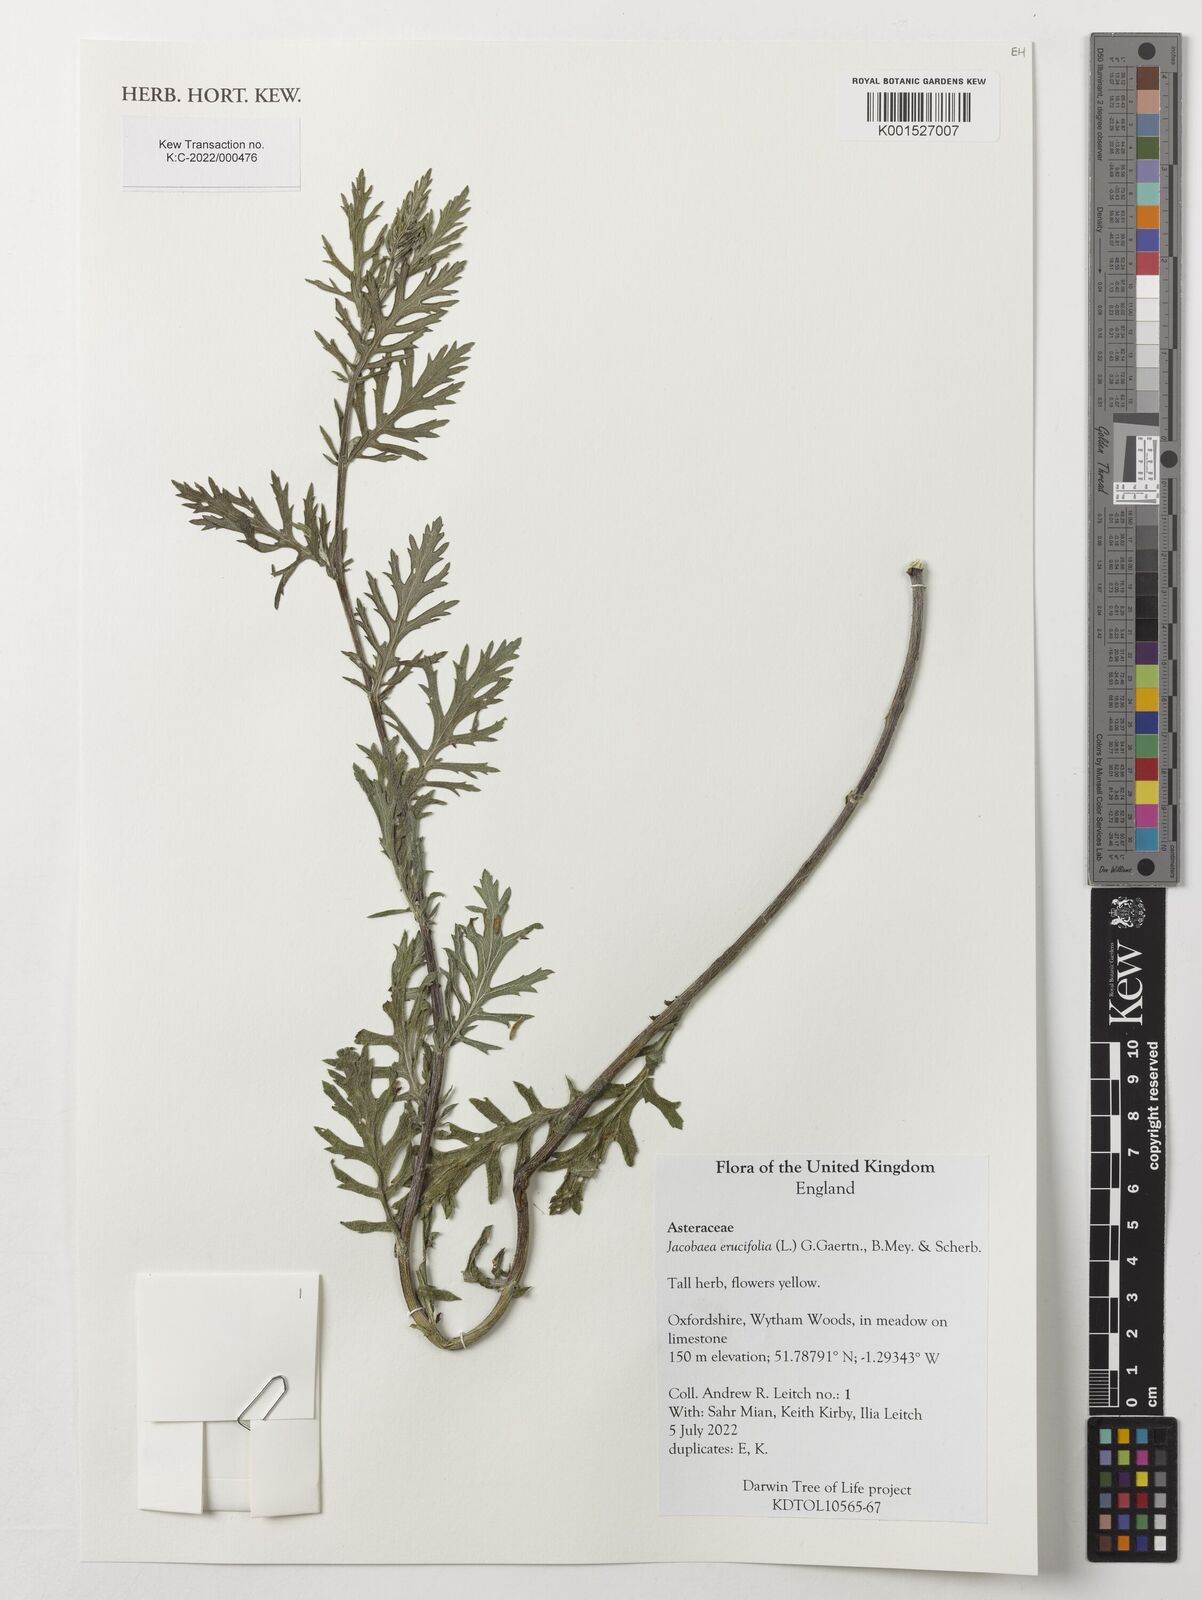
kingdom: Plantae
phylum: Tracheophyta
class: Magnoliopsida
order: Asterales
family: Asteraceae
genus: Jacobaea
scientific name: Jacobaea erucifolia
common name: Hoary ragwort
